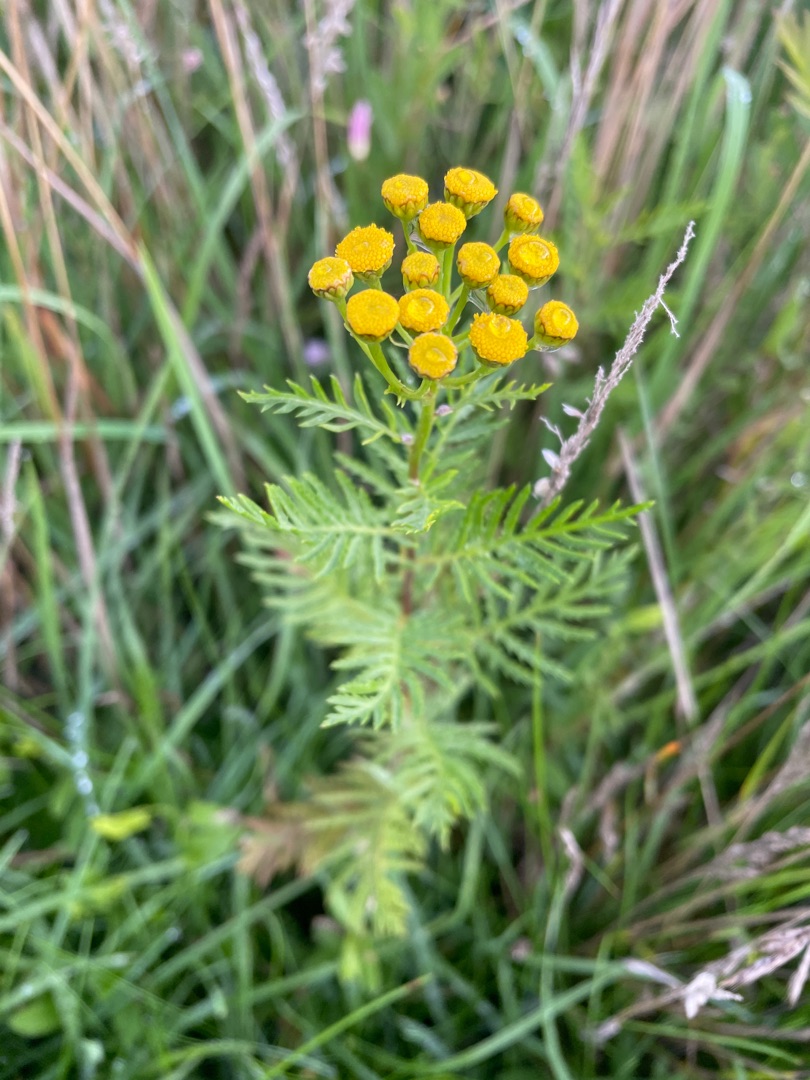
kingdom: Plantae
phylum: Tracheophyta
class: Magnoliopsida
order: Asterales
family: Asteraceae
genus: Tanacetum
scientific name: Tanacetum vulgare
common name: Rejnfan
